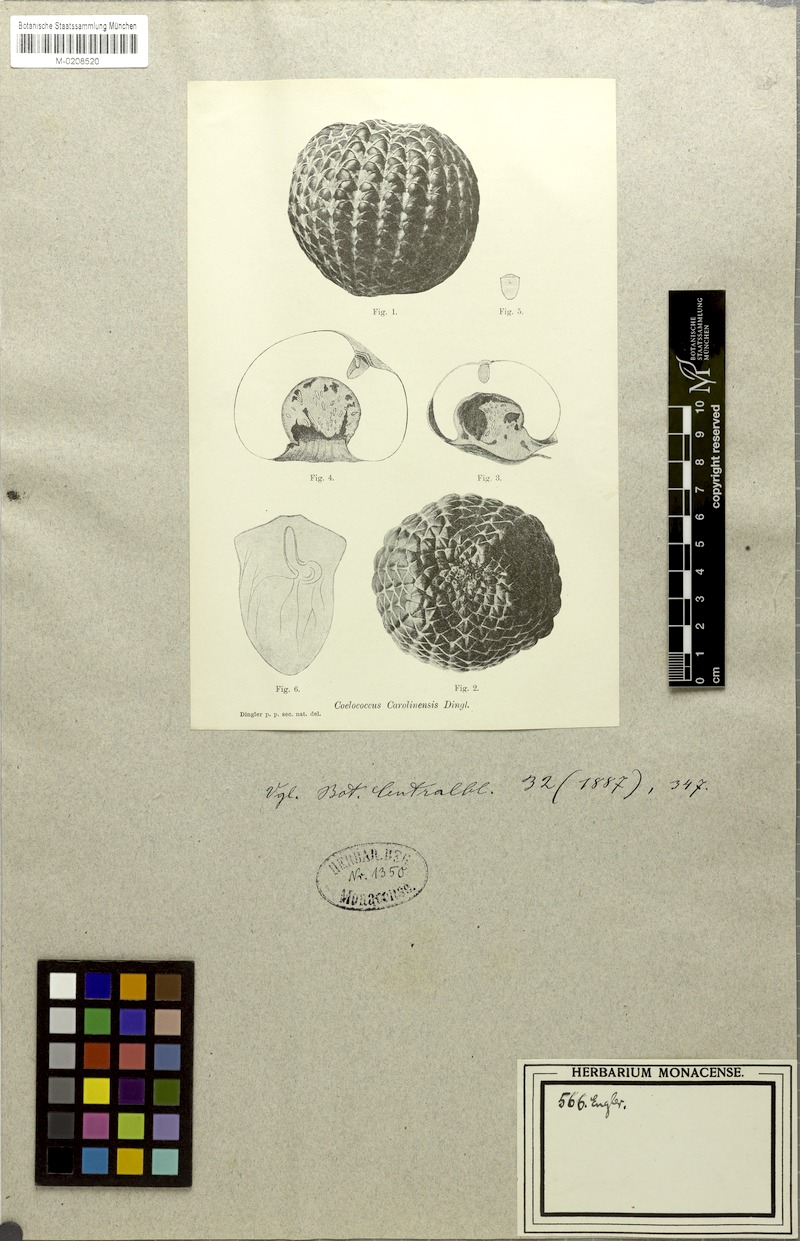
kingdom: Plantae
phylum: Tracheophyta
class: Liliopsida
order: Arecales
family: Arecaceae
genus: Metroxylon
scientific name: Metroxylon amicarum
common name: Caroline ivory nut
